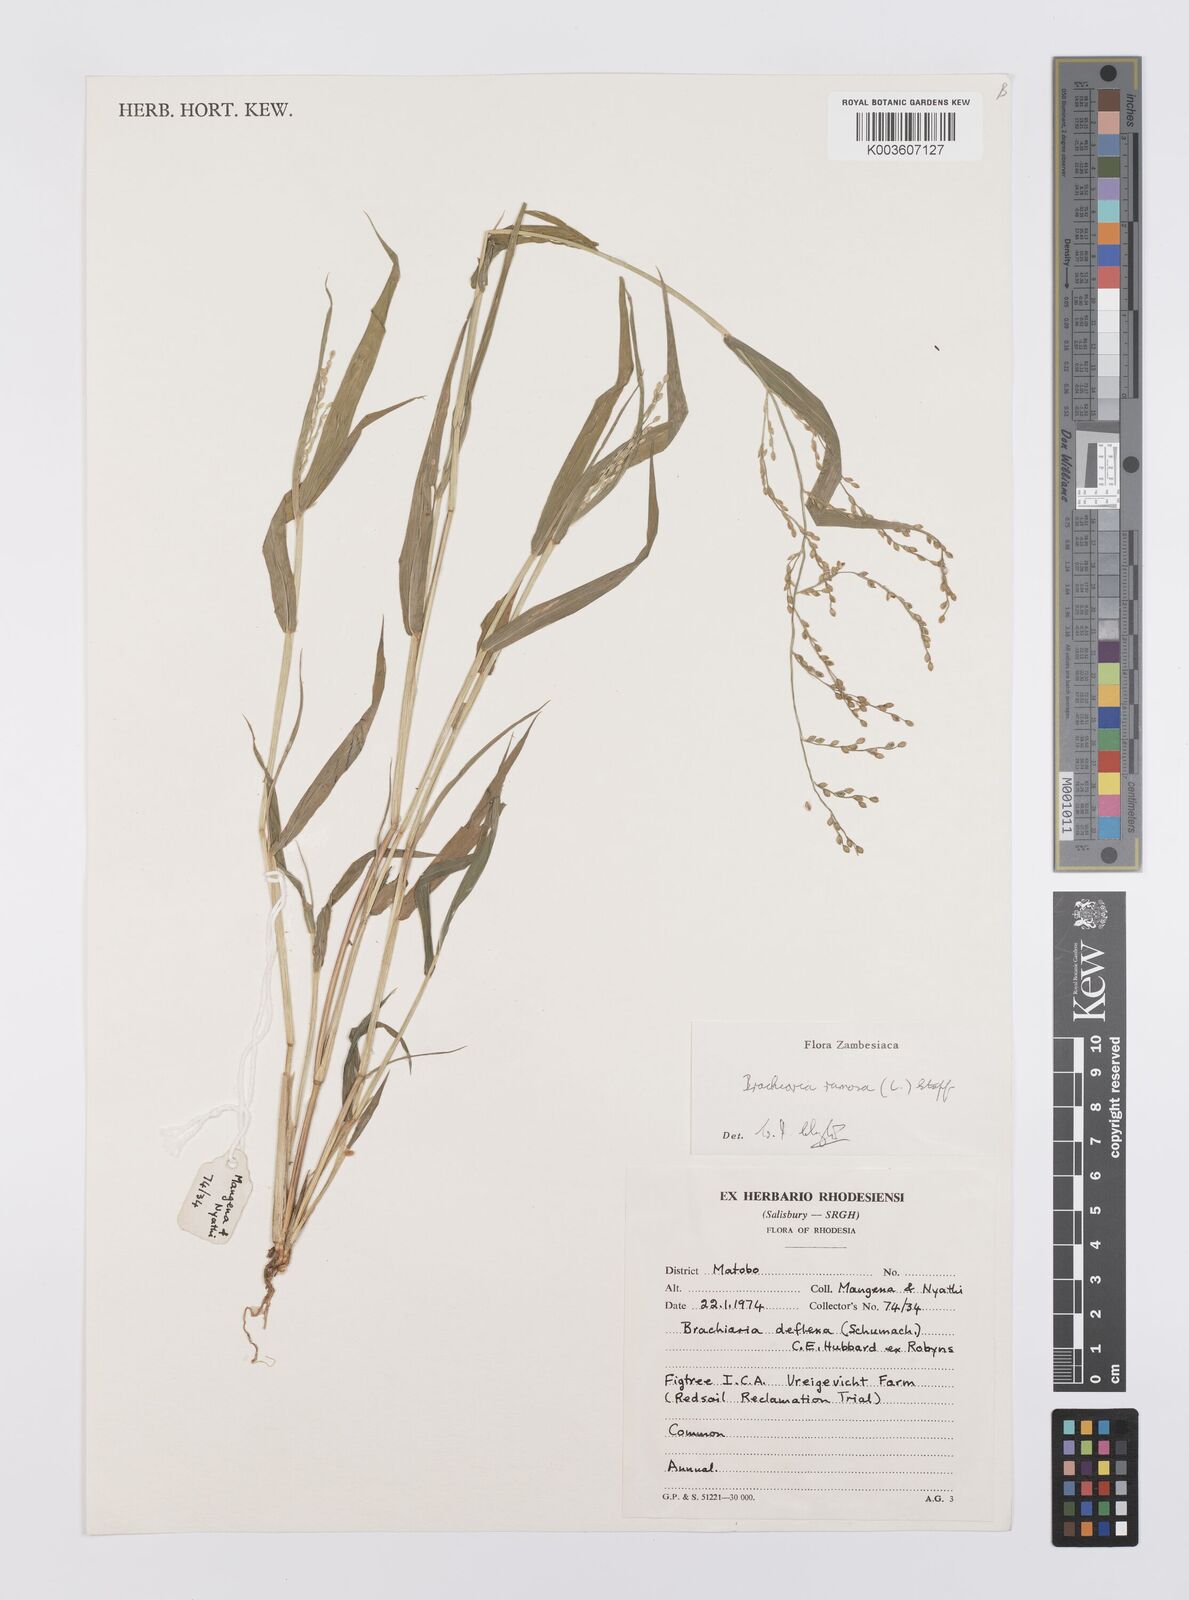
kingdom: Plantae
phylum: Tracheophyta
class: Liliopsida
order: Poales
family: Poaceae
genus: Urochloa
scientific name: Urochloa ramosa
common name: Browntop millet
